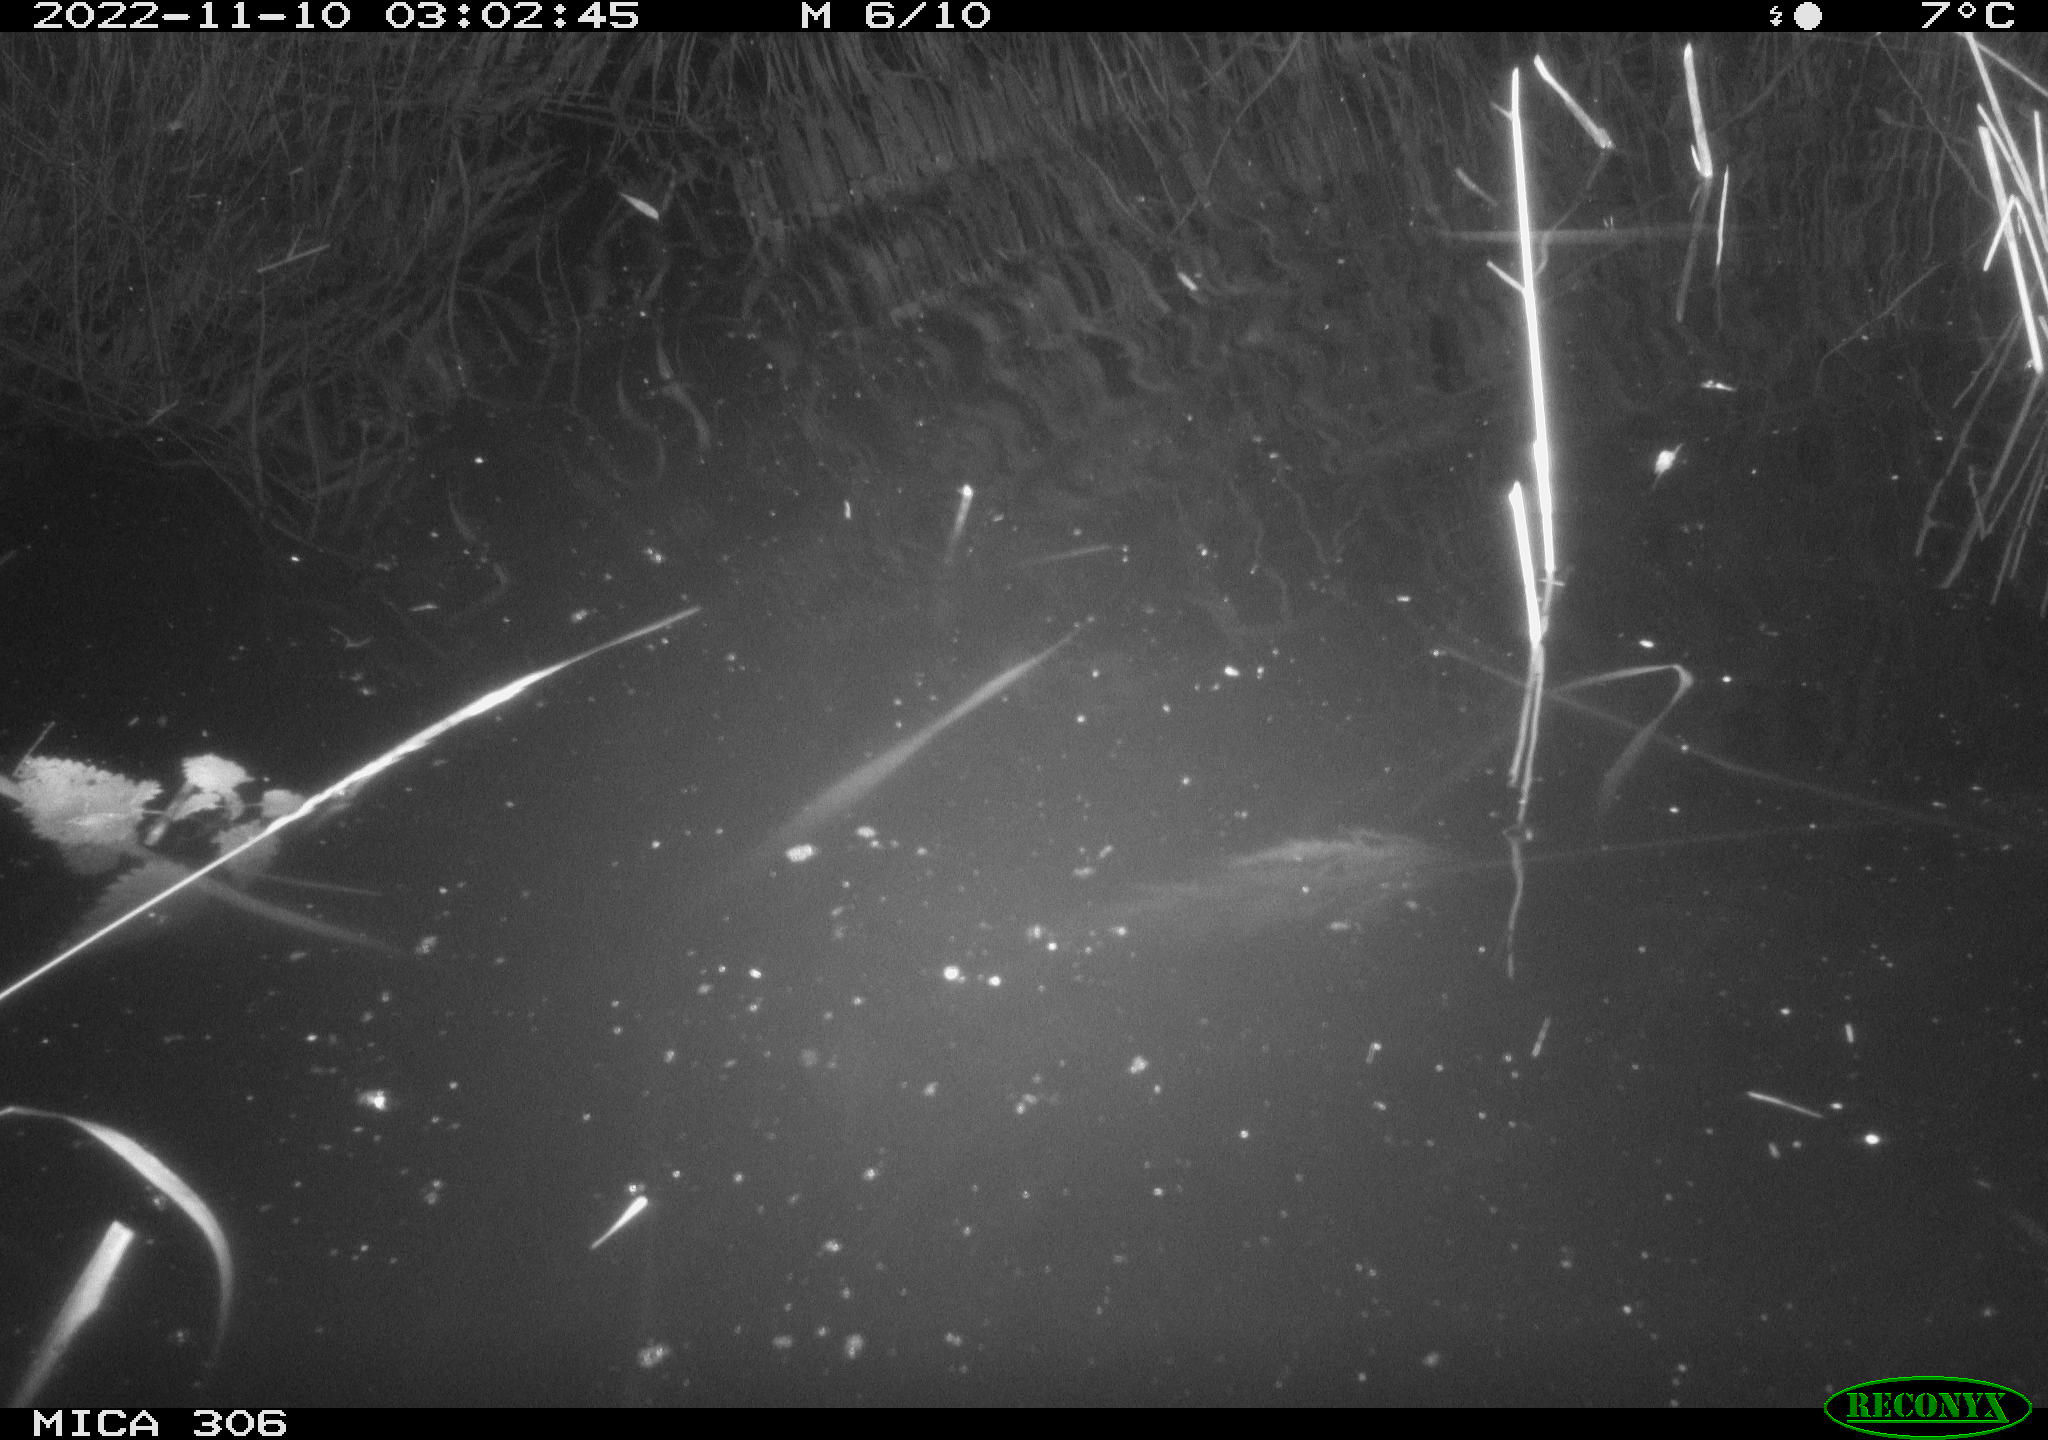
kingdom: Animalia
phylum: Chordata
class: Mammalia
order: Rodentia
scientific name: Rodentia
